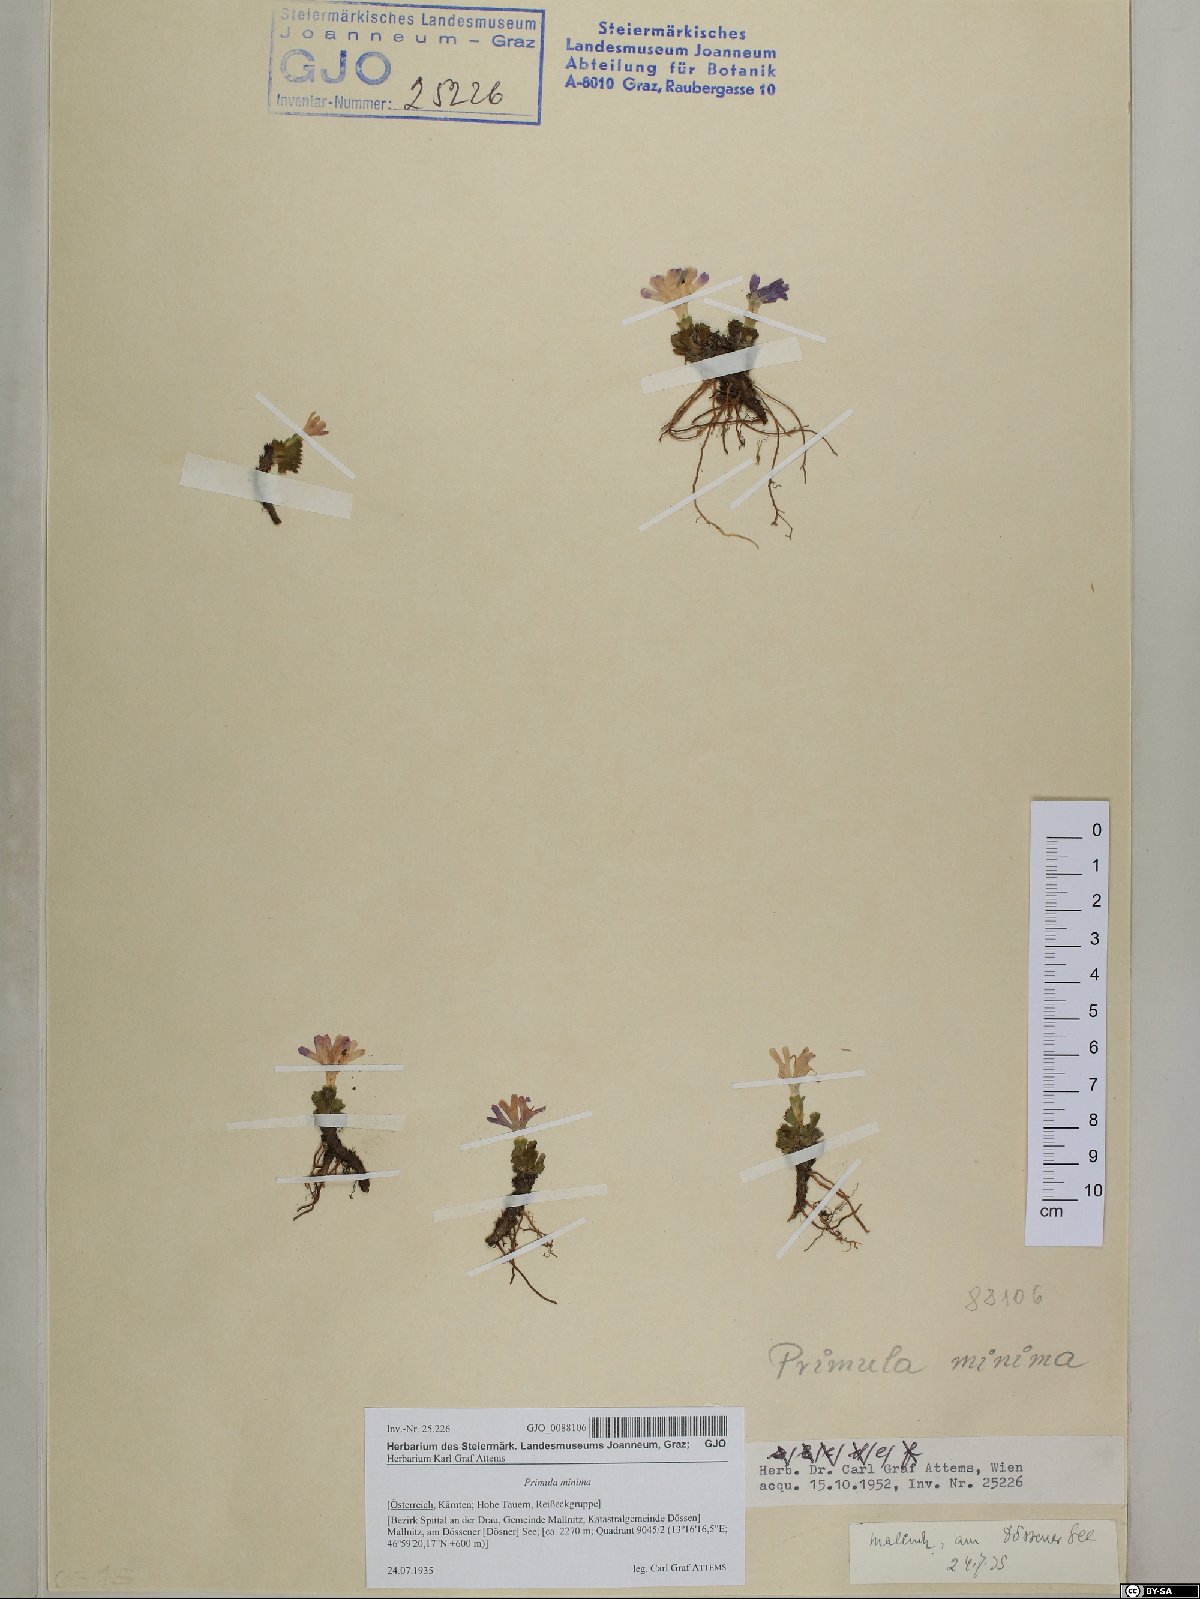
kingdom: Plantae
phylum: Tracheophyta
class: Magnoliopsida
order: Ericales
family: Primulaceae
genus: Primula
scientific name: Primula minima
